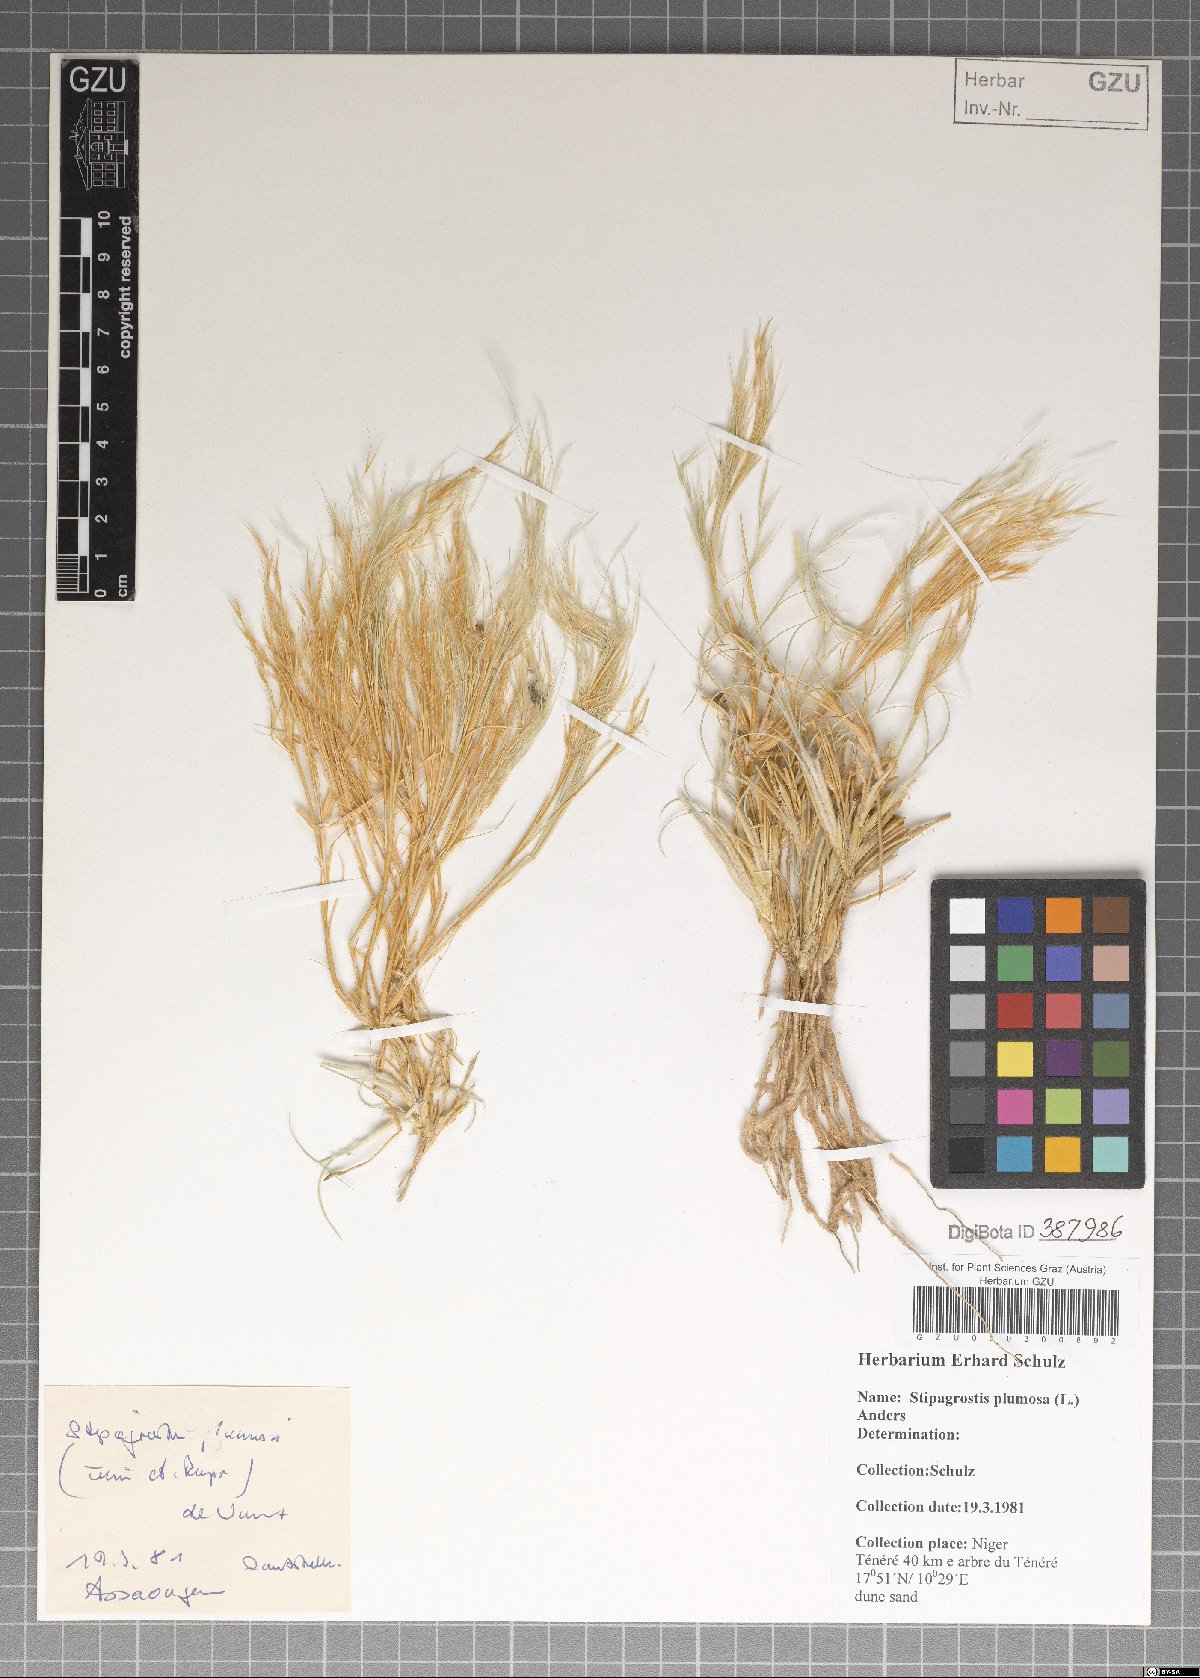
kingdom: Plantae
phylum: Tracheophyta
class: Liliopsida
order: Poales
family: Poaceae
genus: Stipagrostis
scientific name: Stipagrostis plumosa
